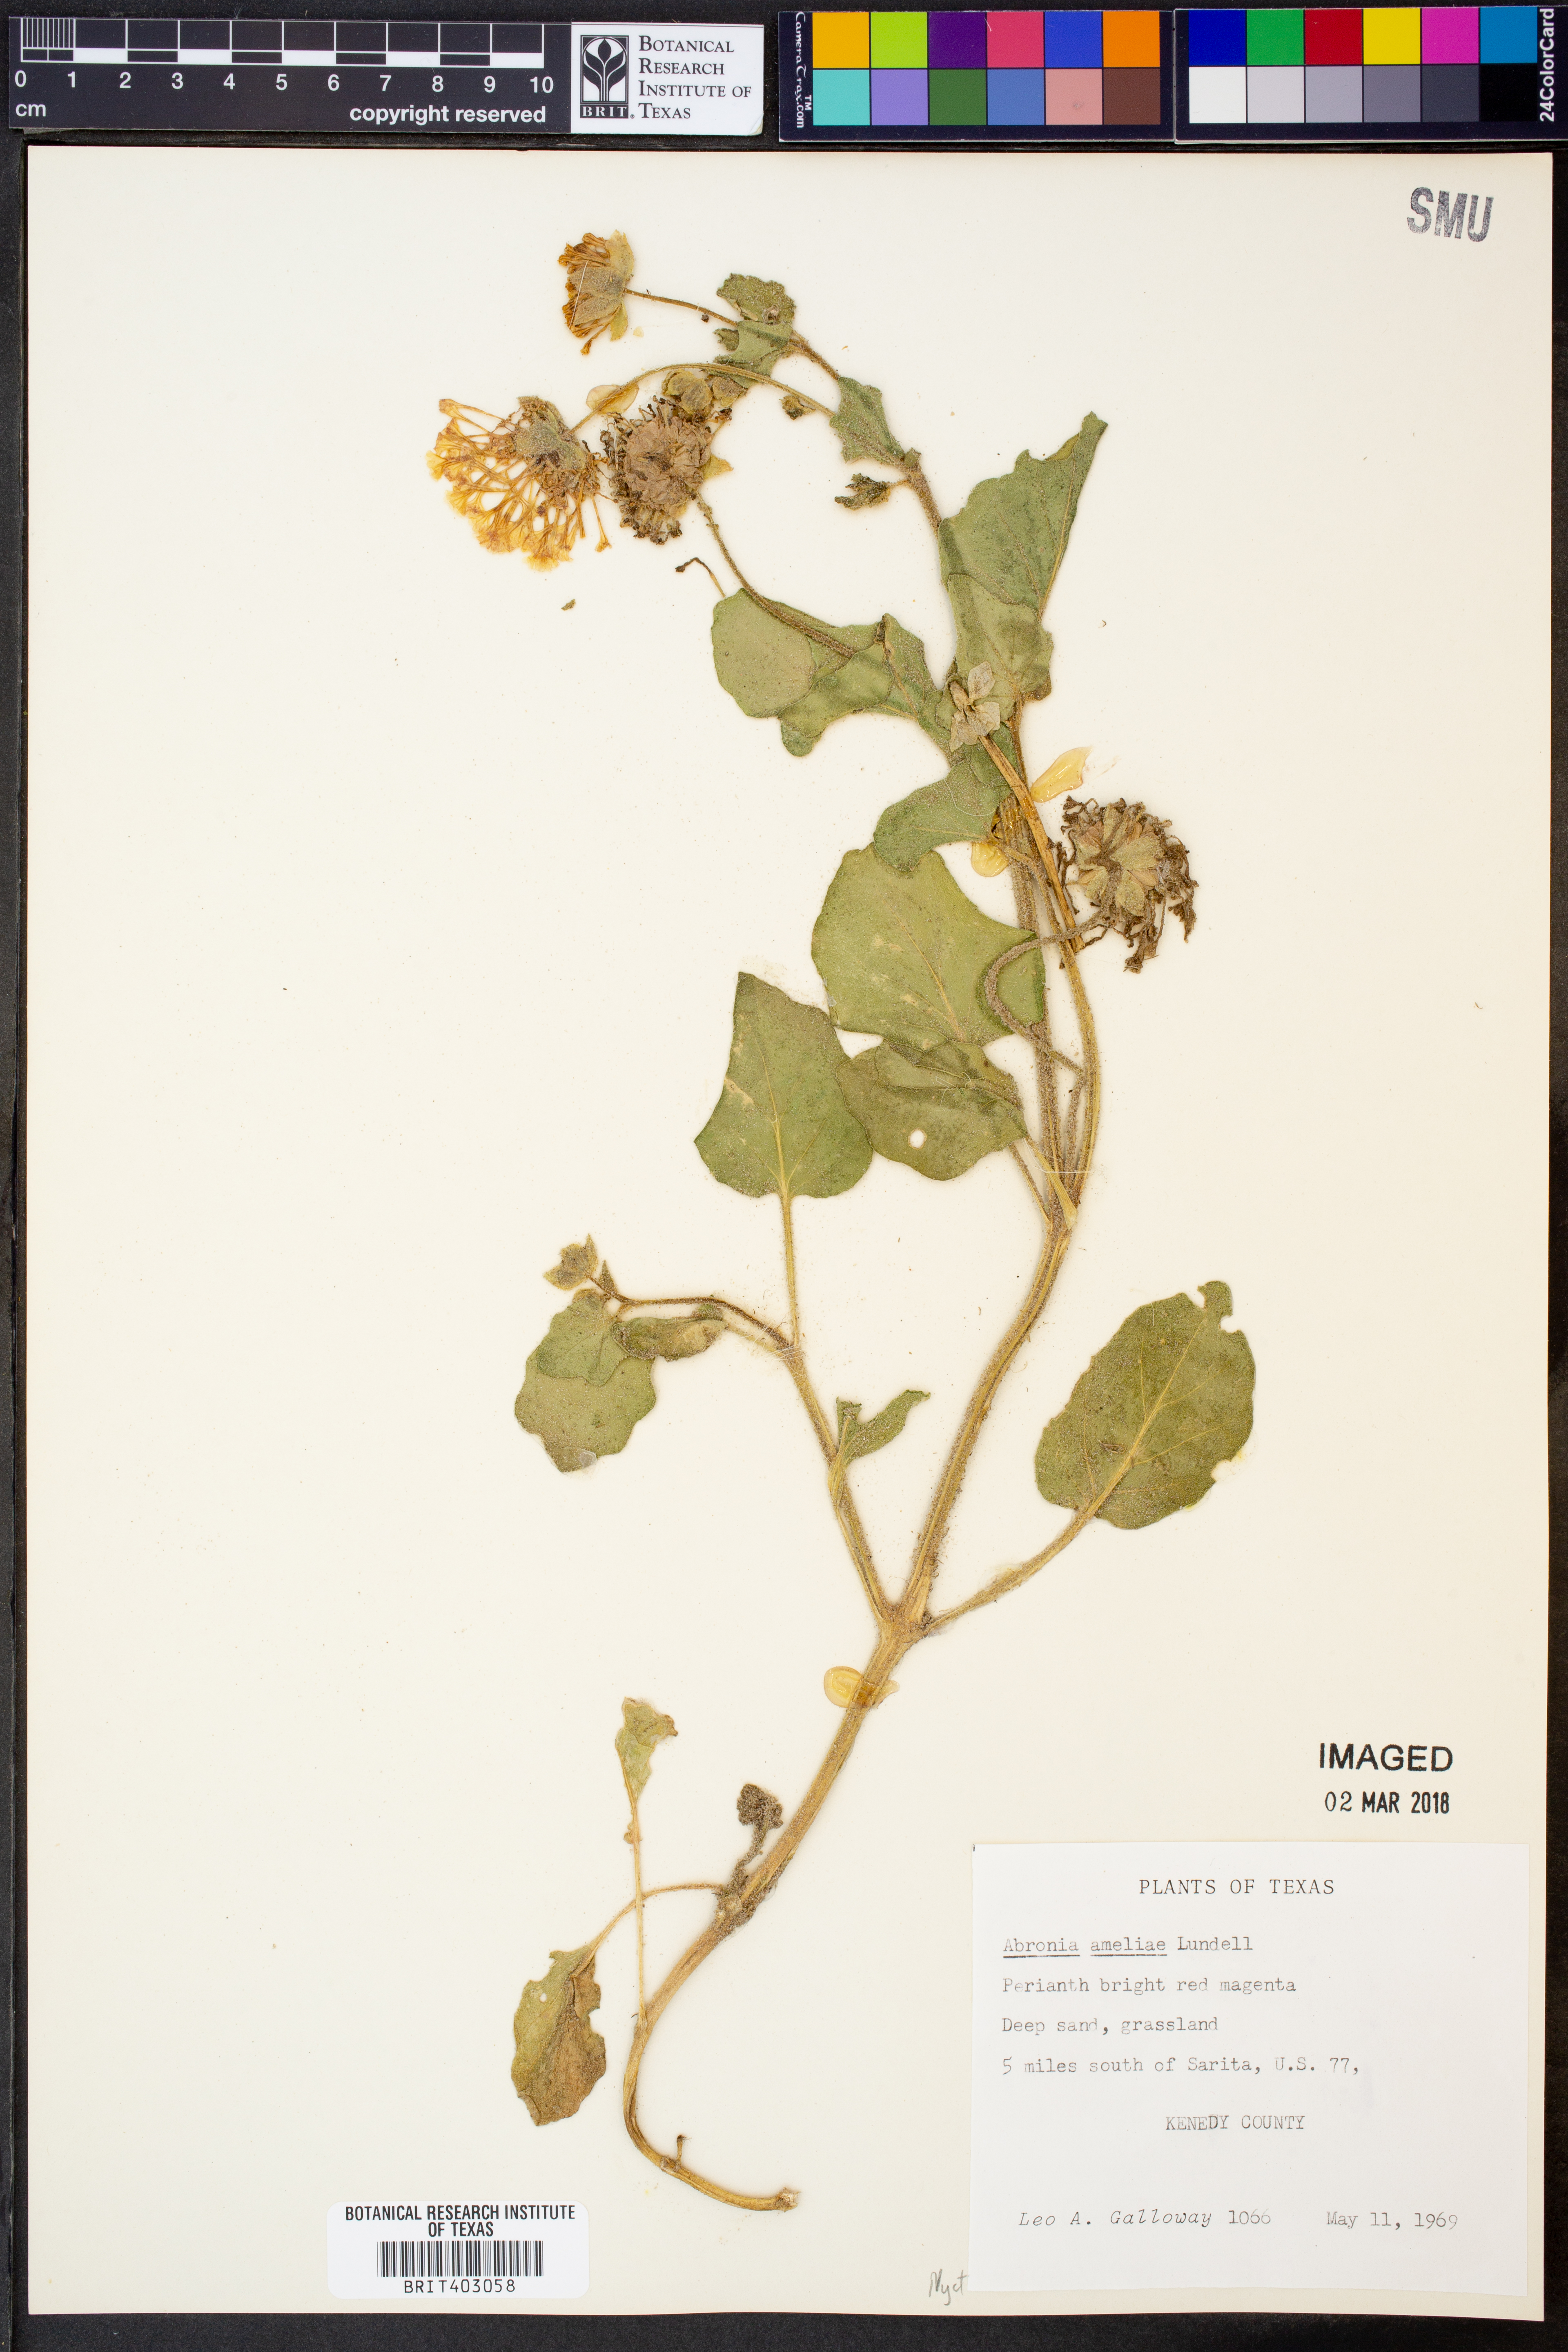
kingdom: Plantae
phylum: Tracheophyta
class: Magnoliopsida
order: Caryophyllales
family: Nyctaginaceae
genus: Abronia
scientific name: Abronia ameliae
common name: Amelia's sand-verbena
